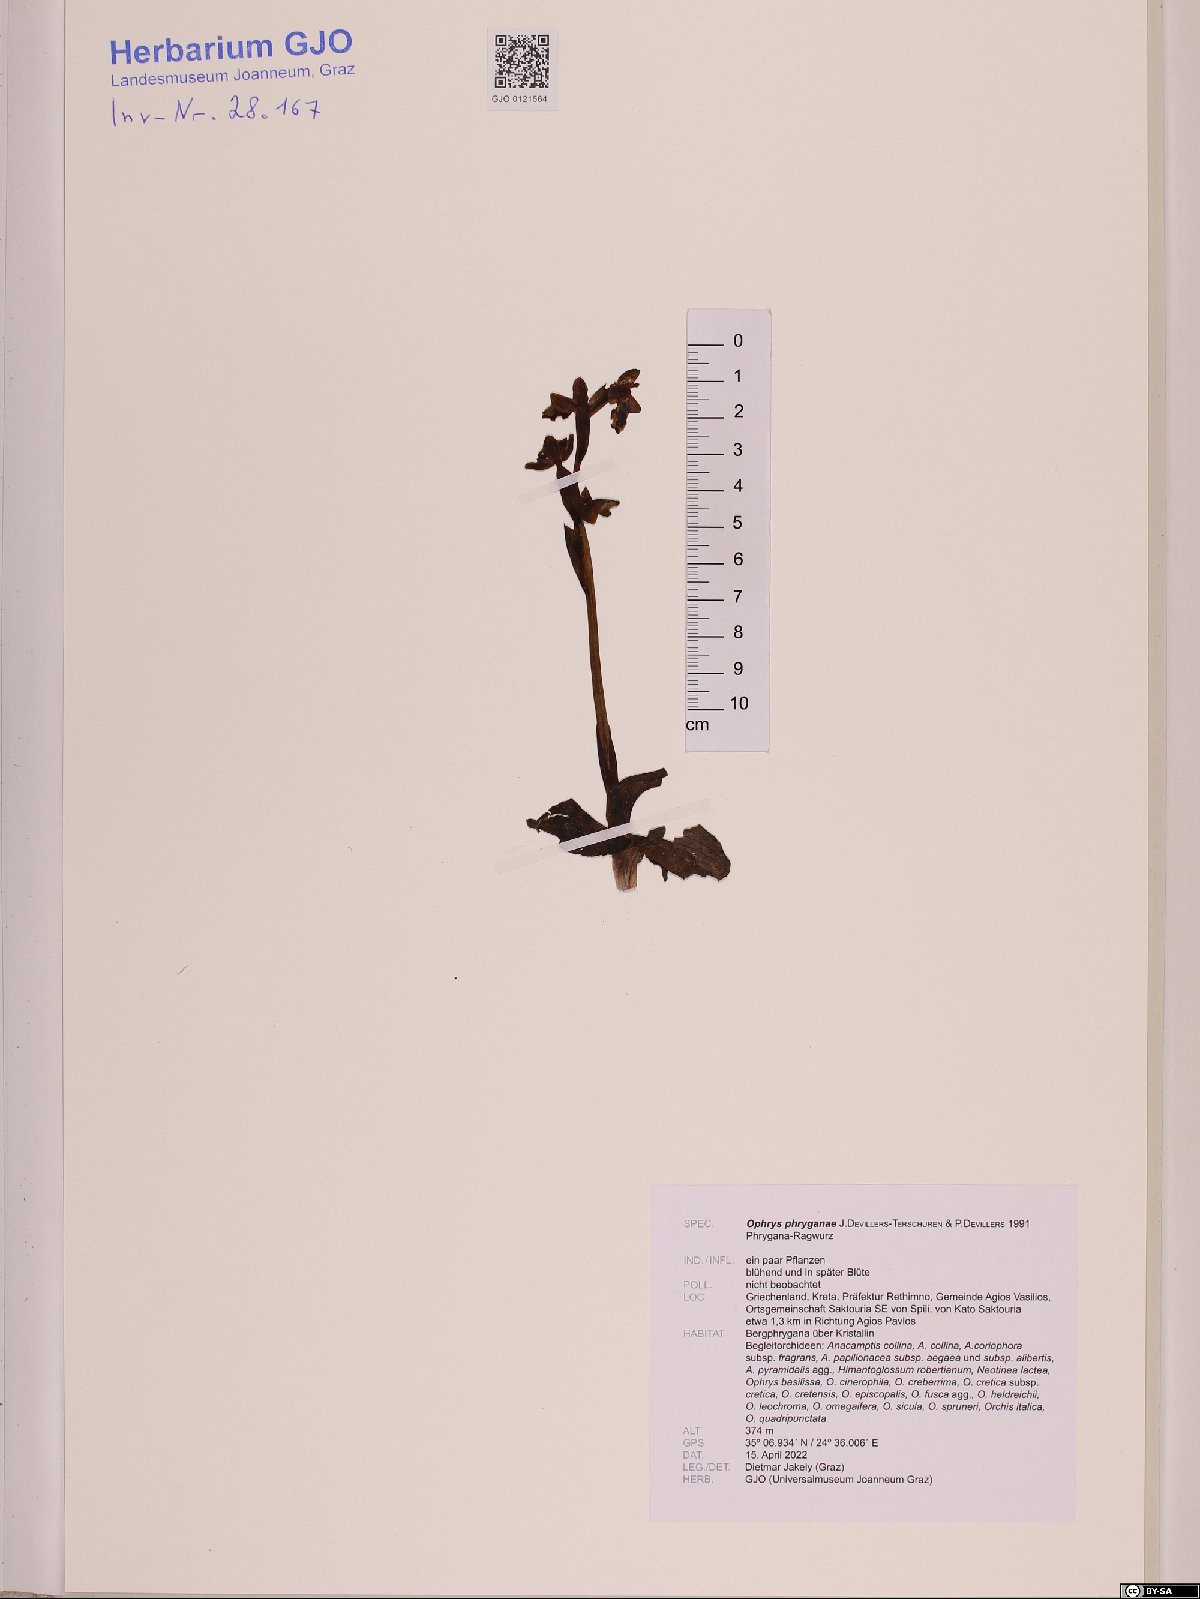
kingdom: Plantae
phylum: Tracheophyta
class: Liliopsida
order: Asparagales
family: Orchidaceae
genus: Ophrys
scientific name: Ophrys lutea
